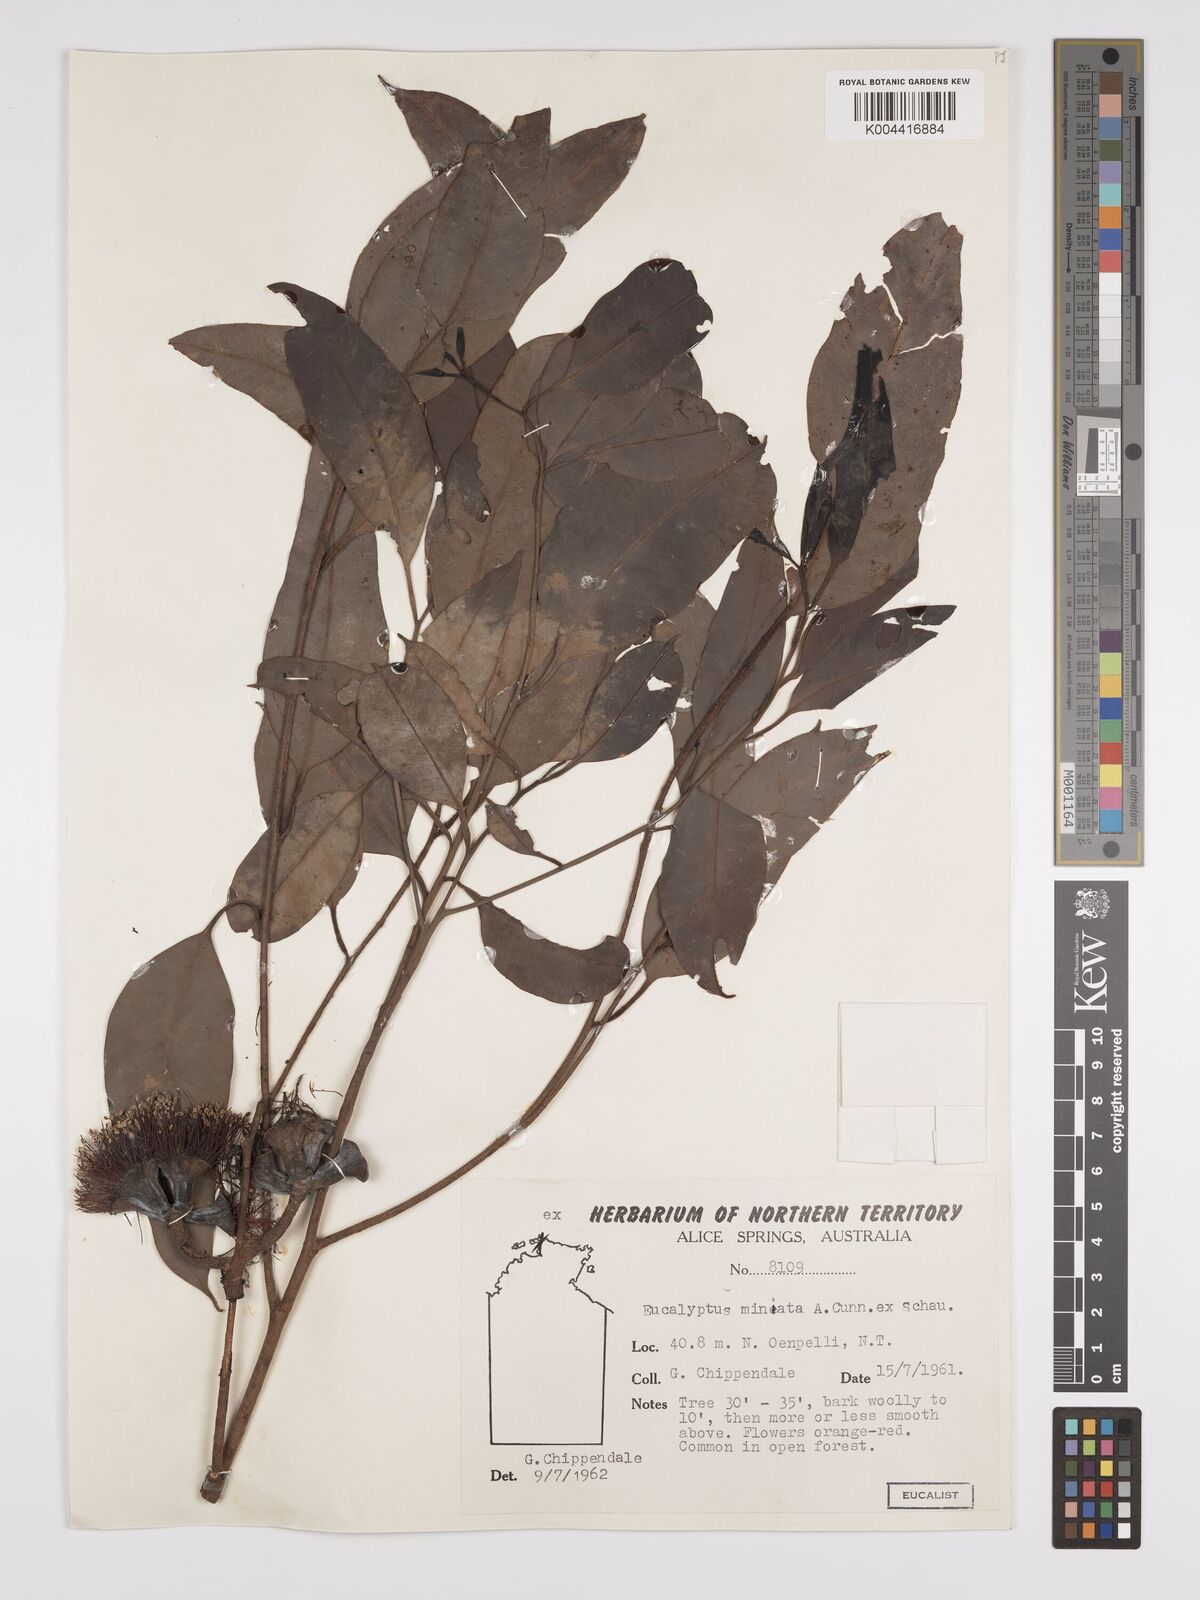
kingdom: Plantae
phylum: Tracheophyta
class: Magnoliopsida
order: Myrtales
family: Myrtaceae
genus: Eucalyptus
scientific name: Eucalyptus miniata
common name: Darwin-woollybutt
